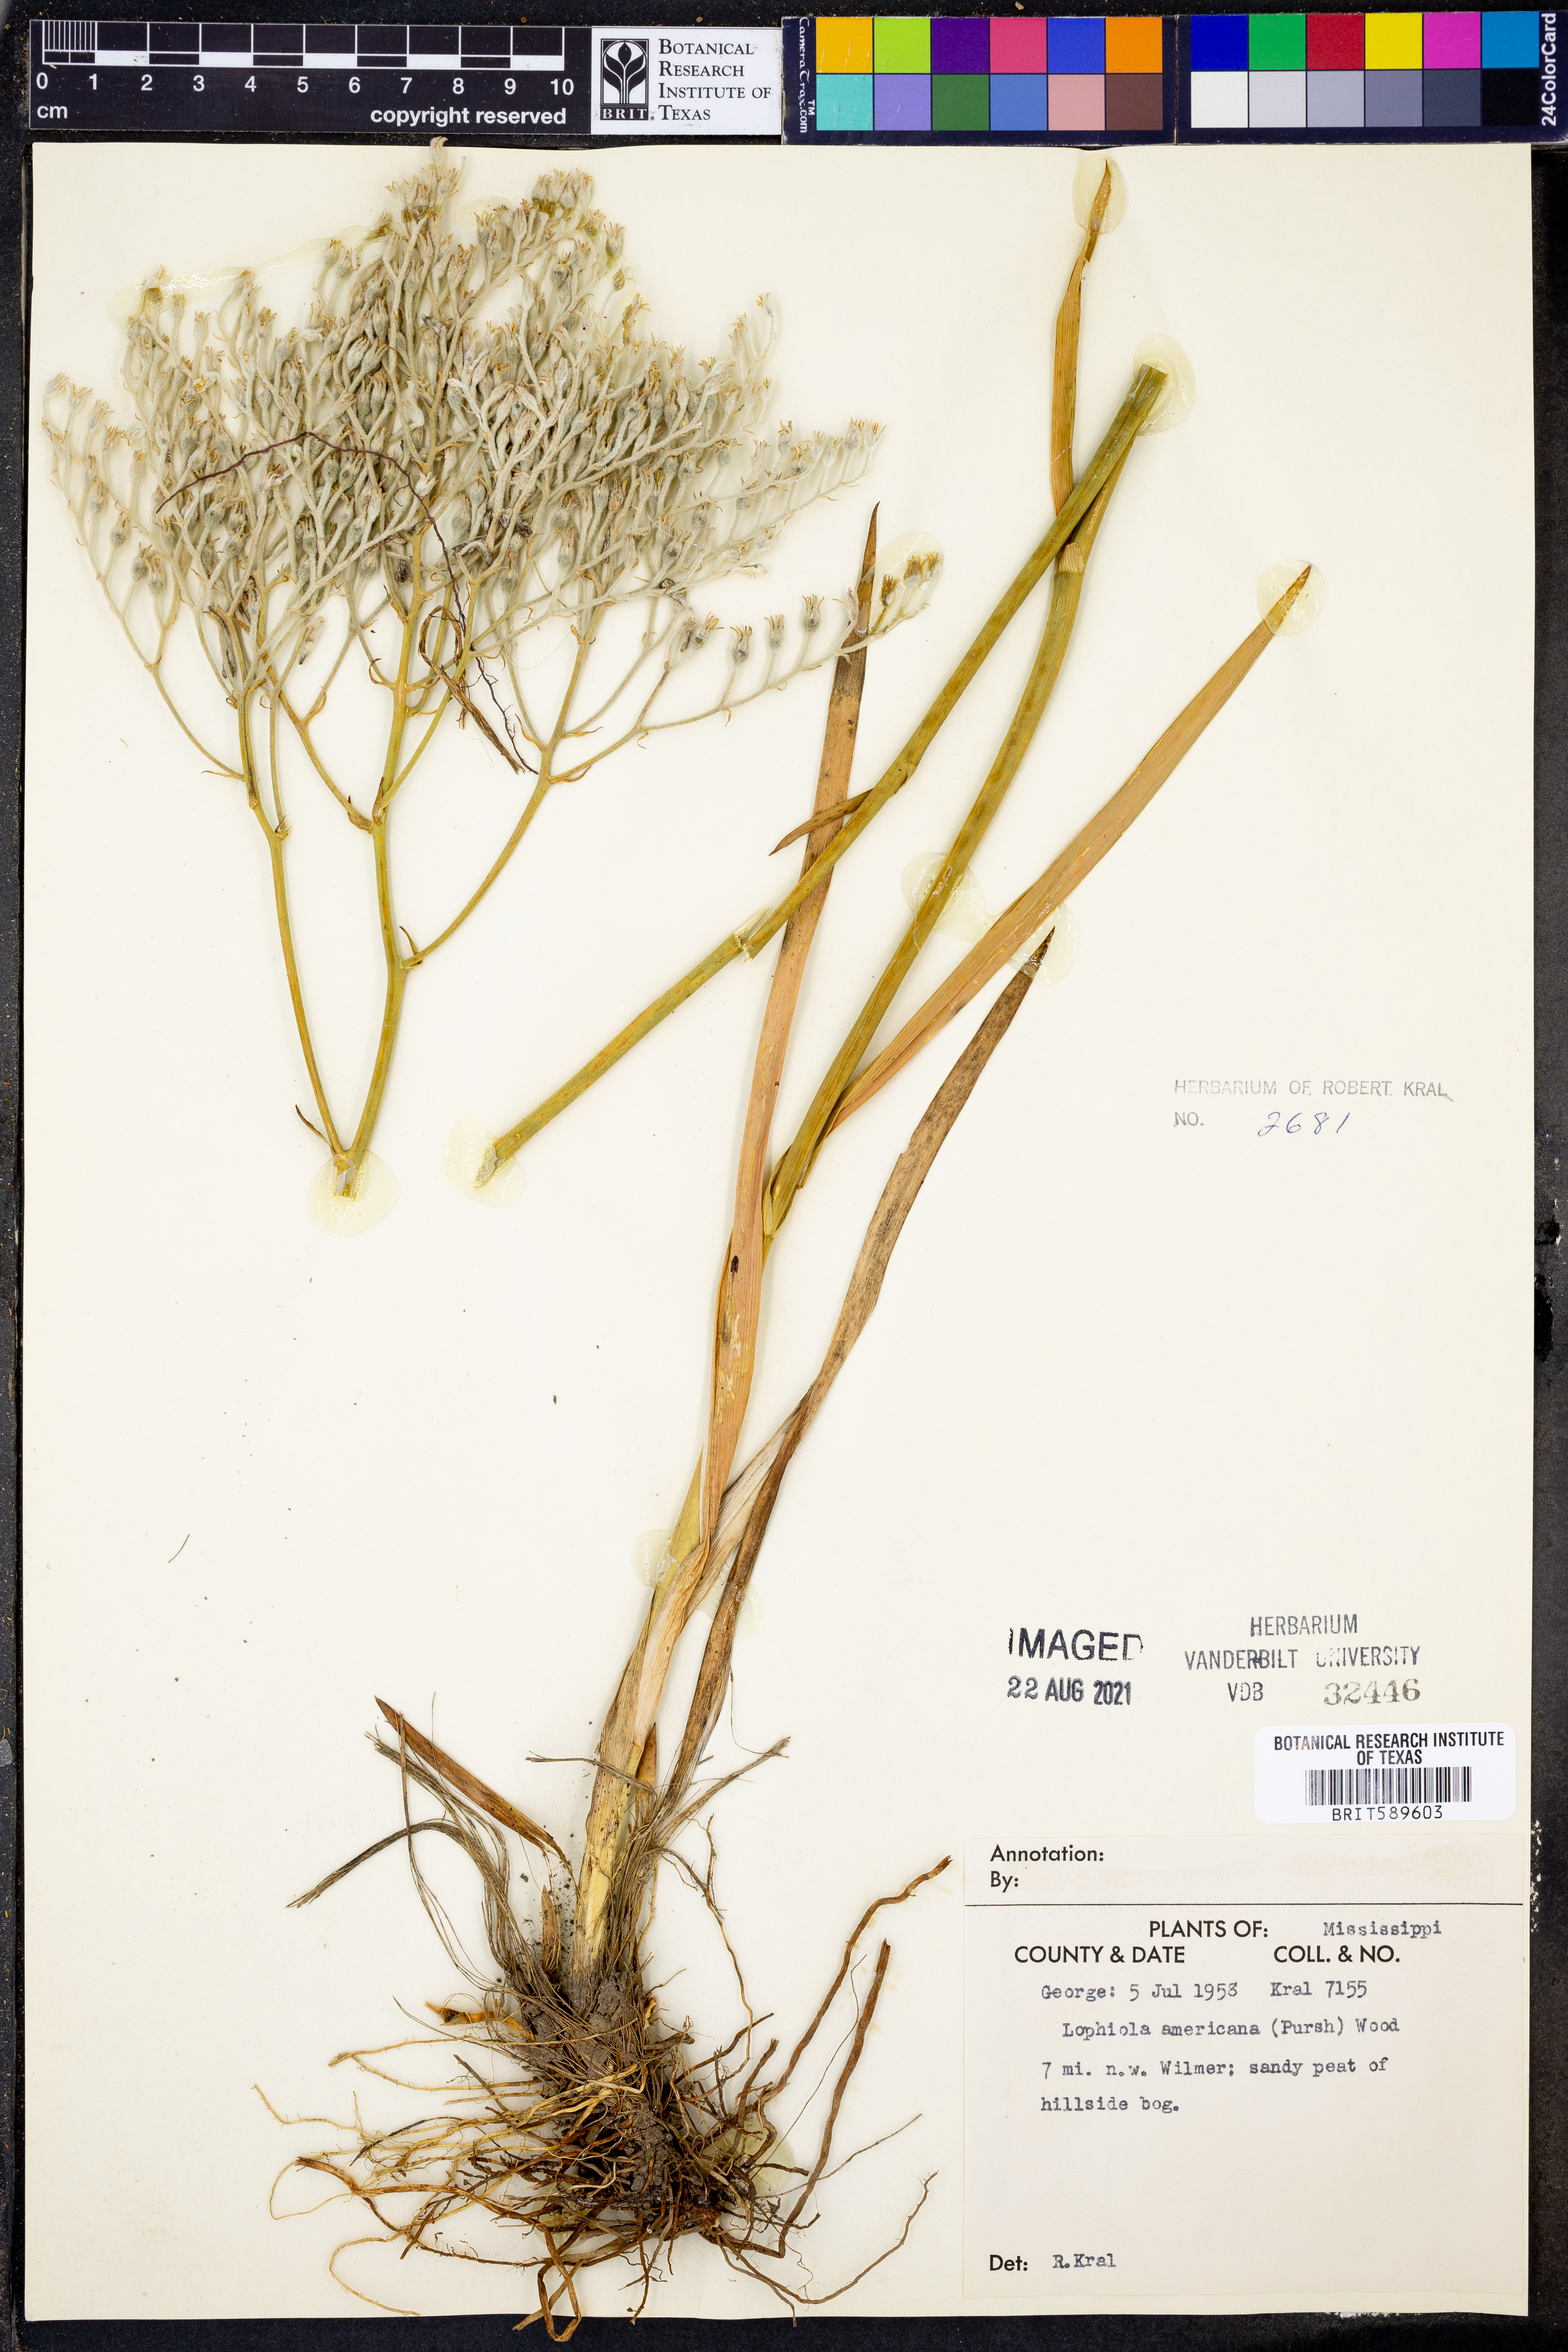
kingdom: Plantae
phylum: Tracheophyta
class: Liliopsida
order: Dioscoreales
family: Nartheciaceae
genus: Lophiola
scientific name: Lophiola aurea
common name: Golden-crest
